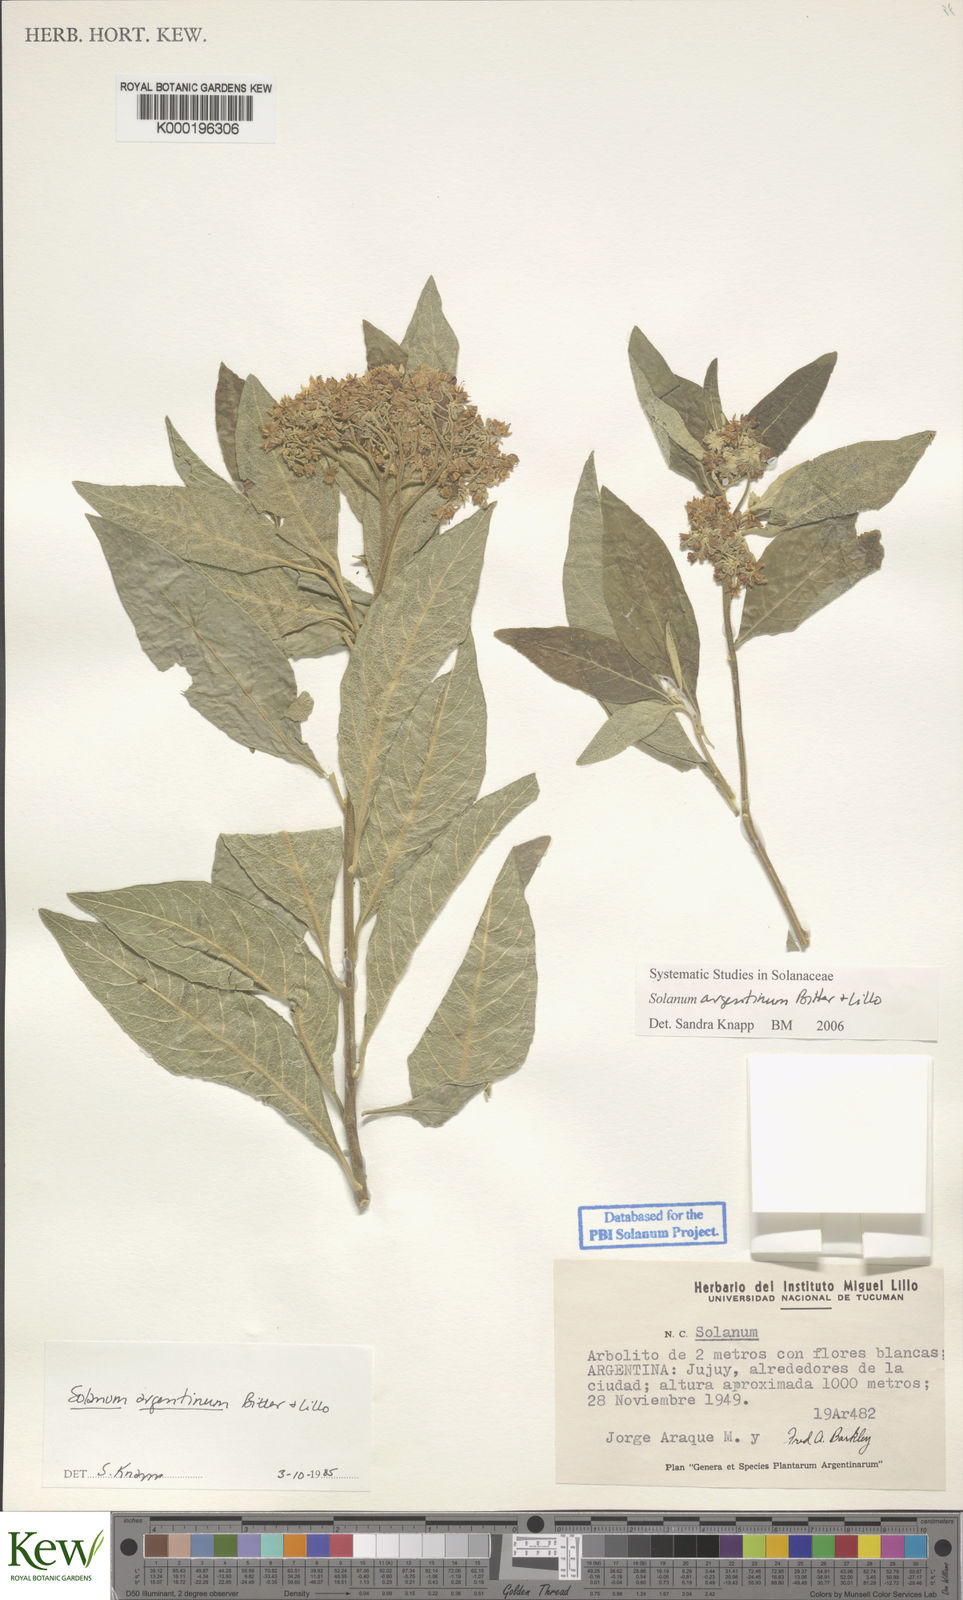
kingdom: Plantae
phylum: Tracheophyta
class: Magnoliopsida
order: Solanales
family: Solanaceae
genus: Solanum
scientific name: Solanum argentinum
